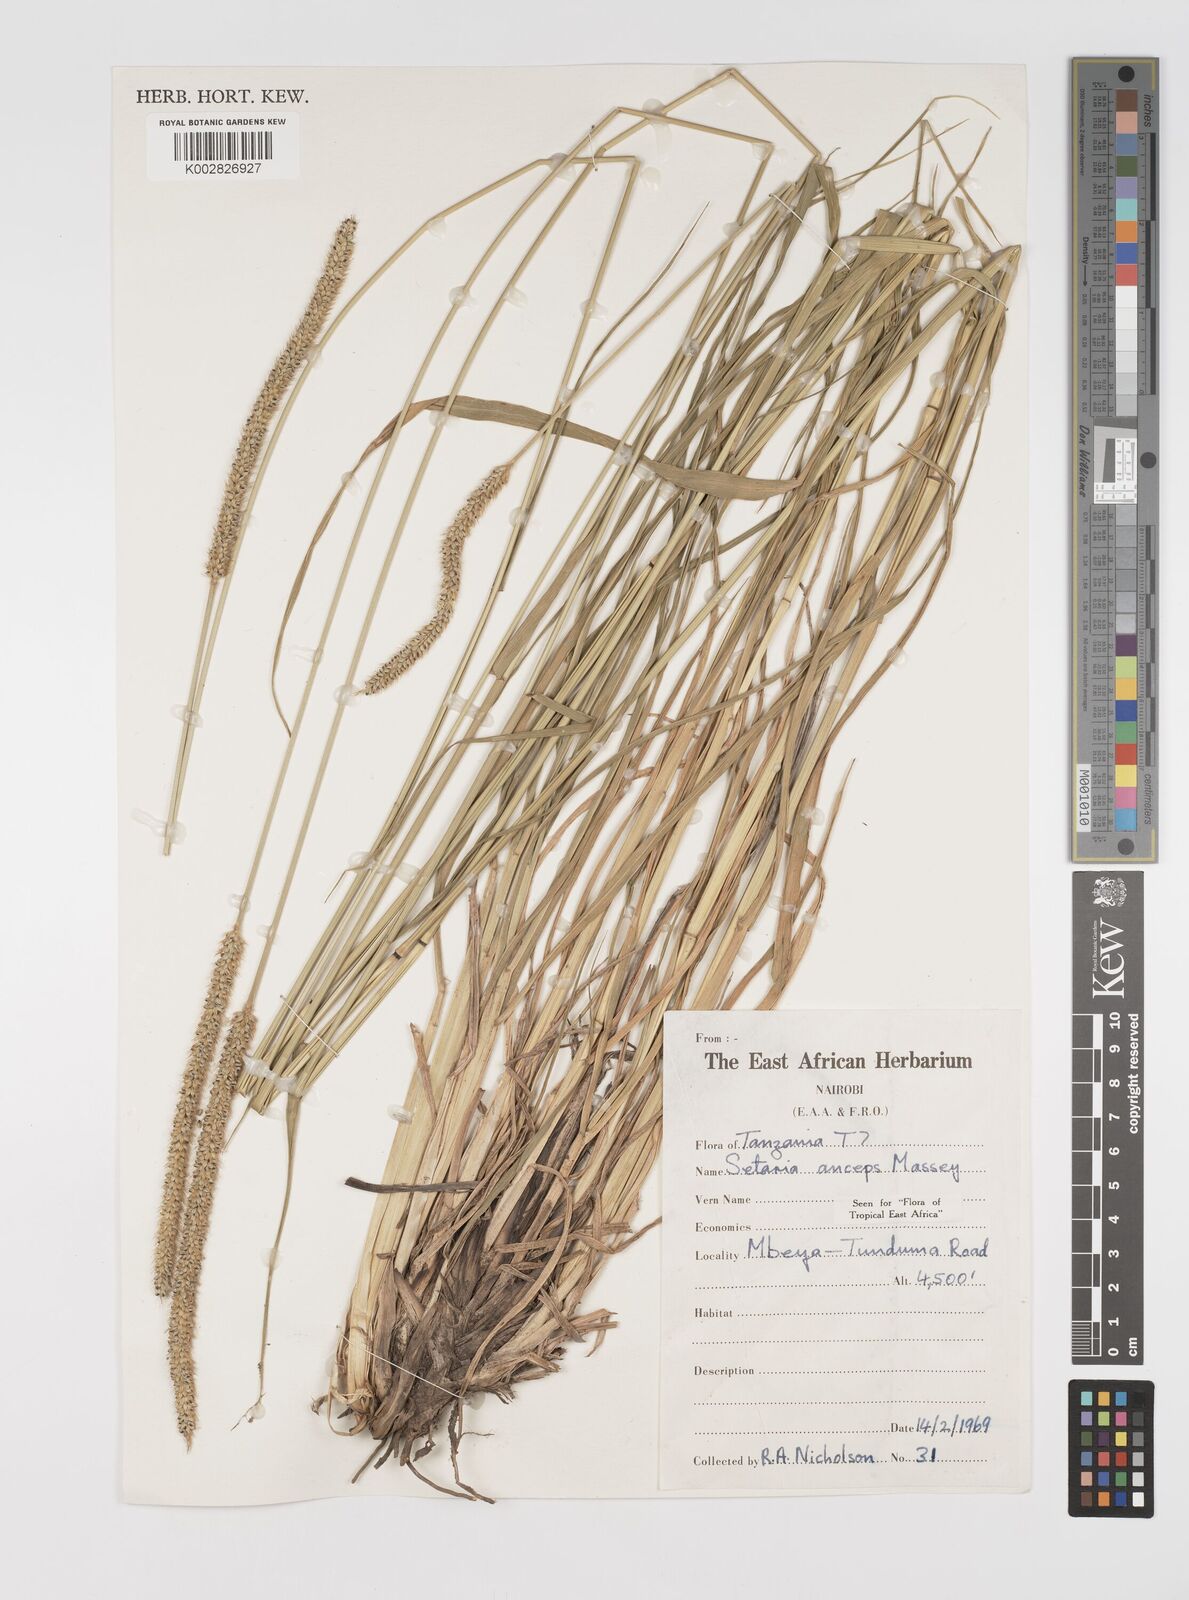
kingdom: Plantae
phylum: Tracheophyta
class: Liliopsida
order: Poales
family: Poaceae
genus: Setaria
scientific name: Setaria sphacelata
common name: African bristlegrass
